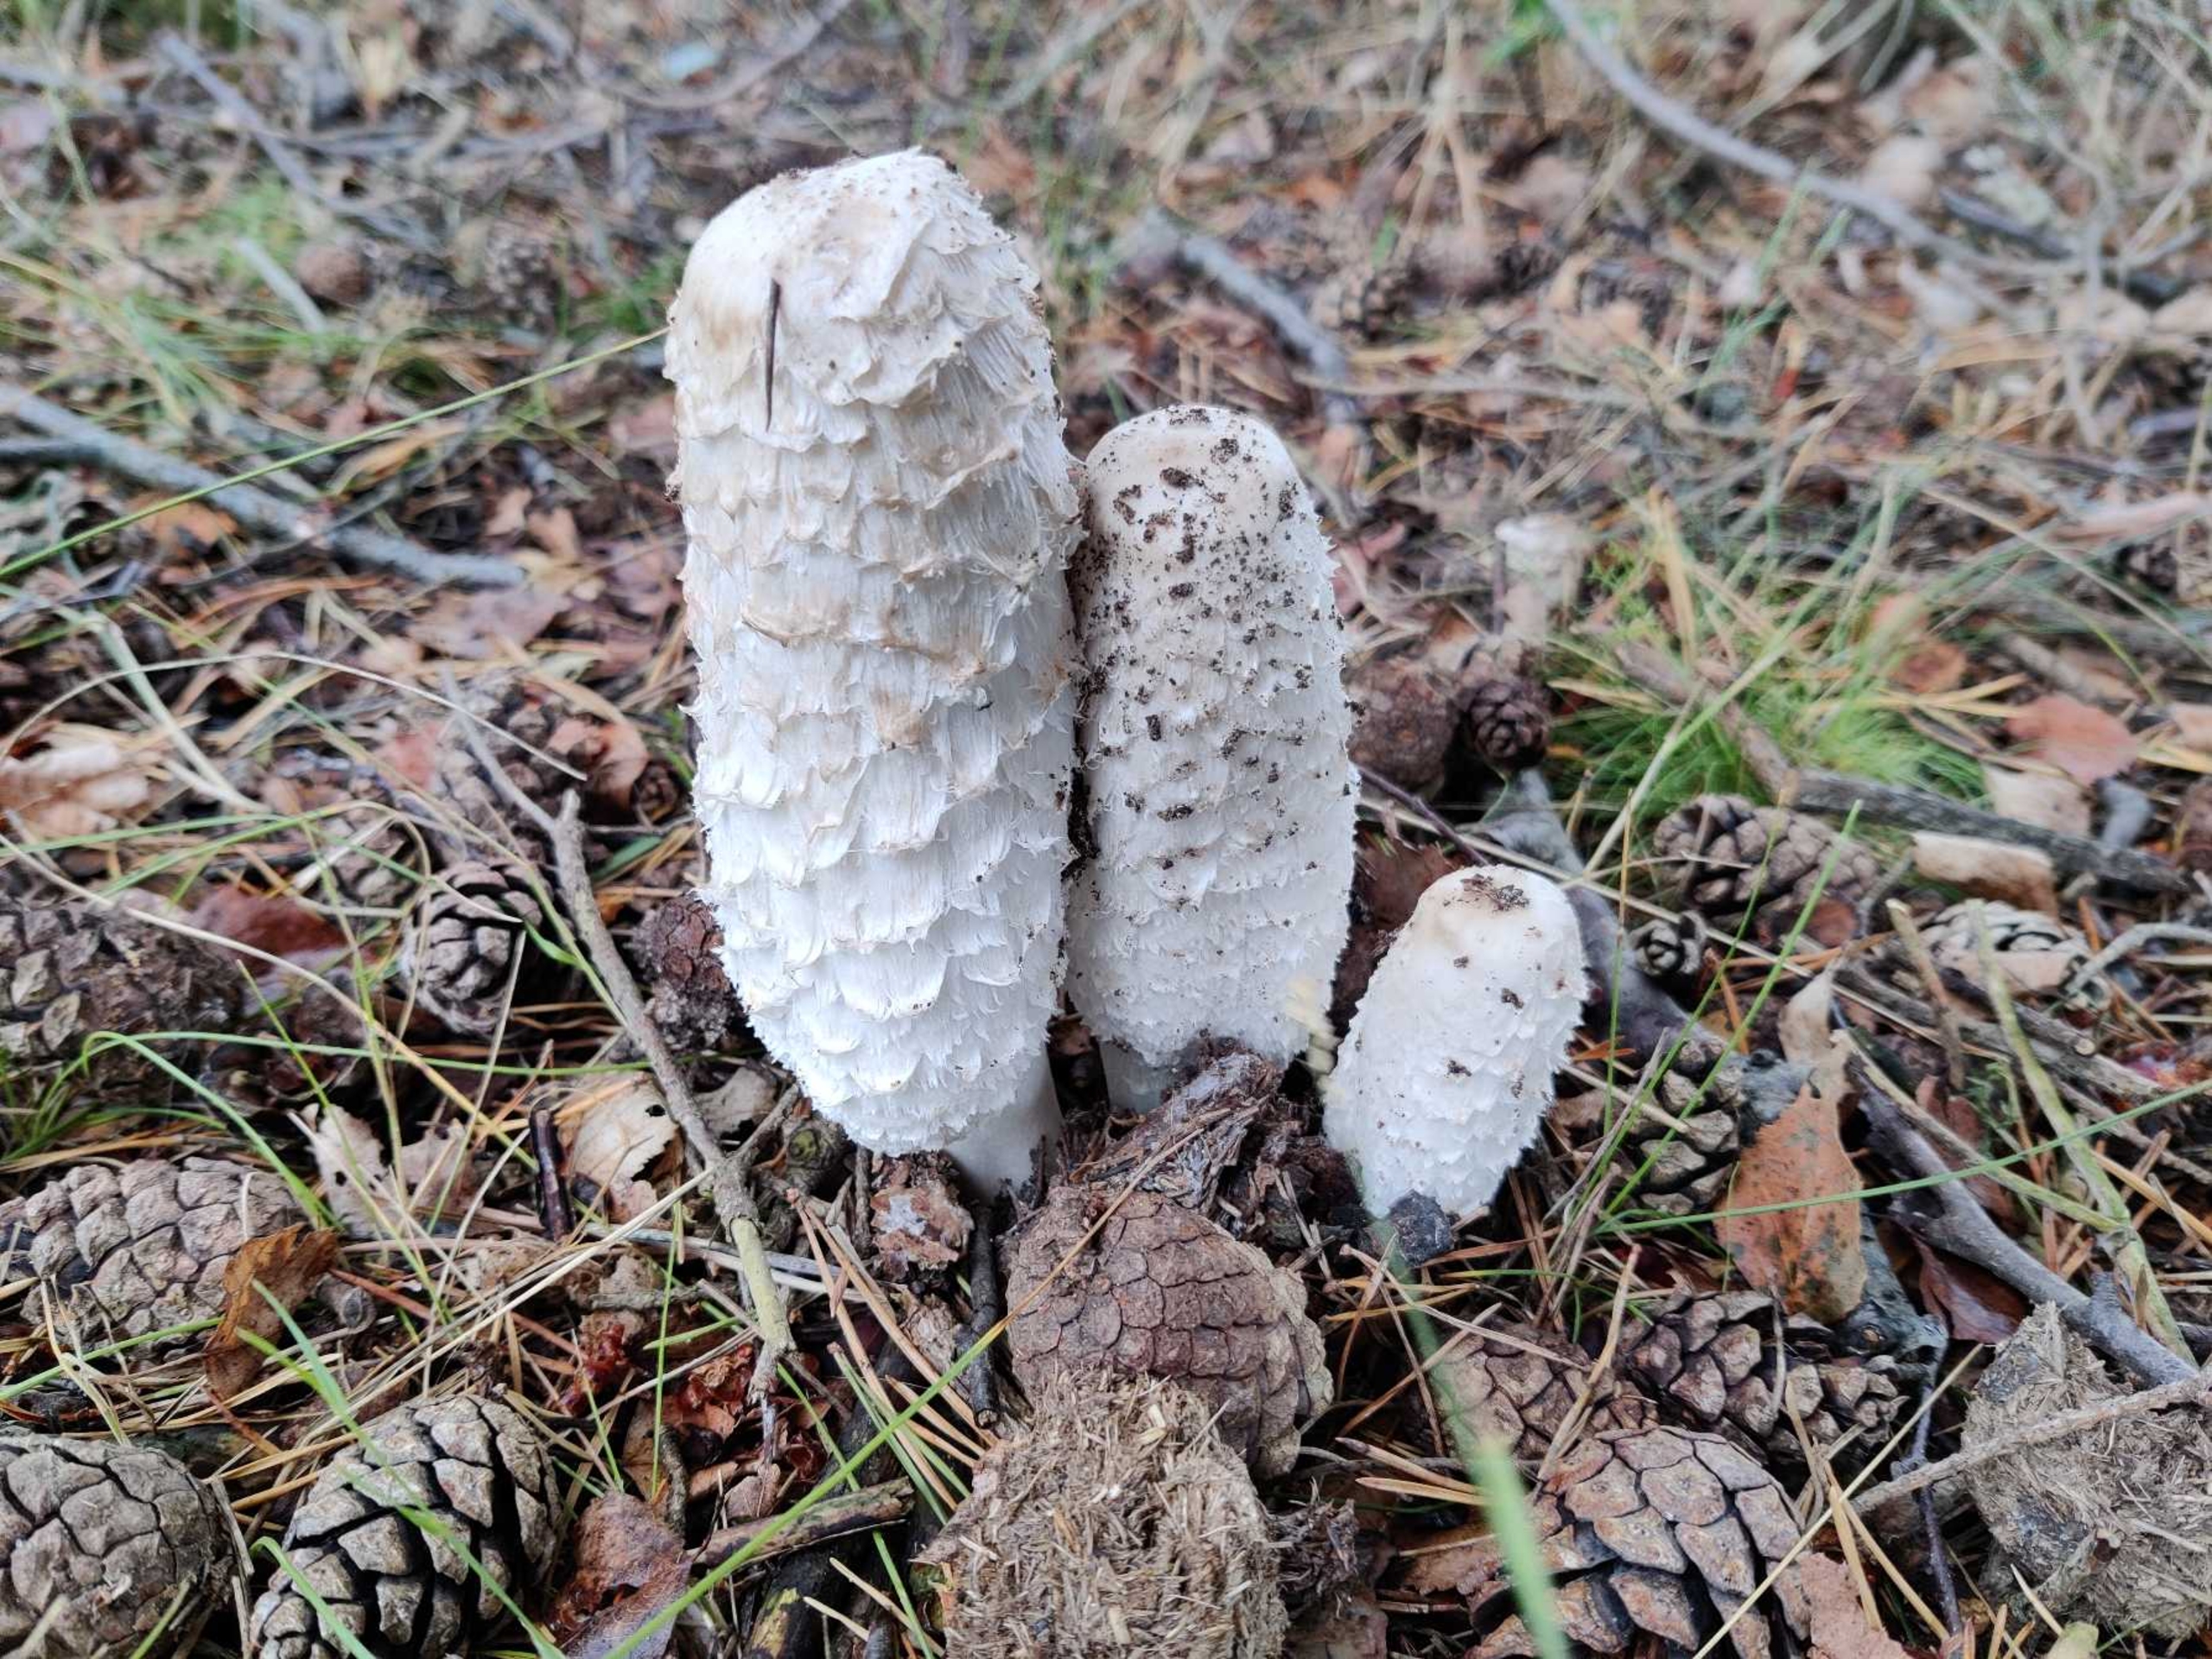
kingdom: Fungi
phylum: Basidiomycota
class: Agaricomycetes
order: Agaricales
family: Agaricaceae
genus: Coprinus
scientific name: Coprinus comatus
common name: Stor parykhat
